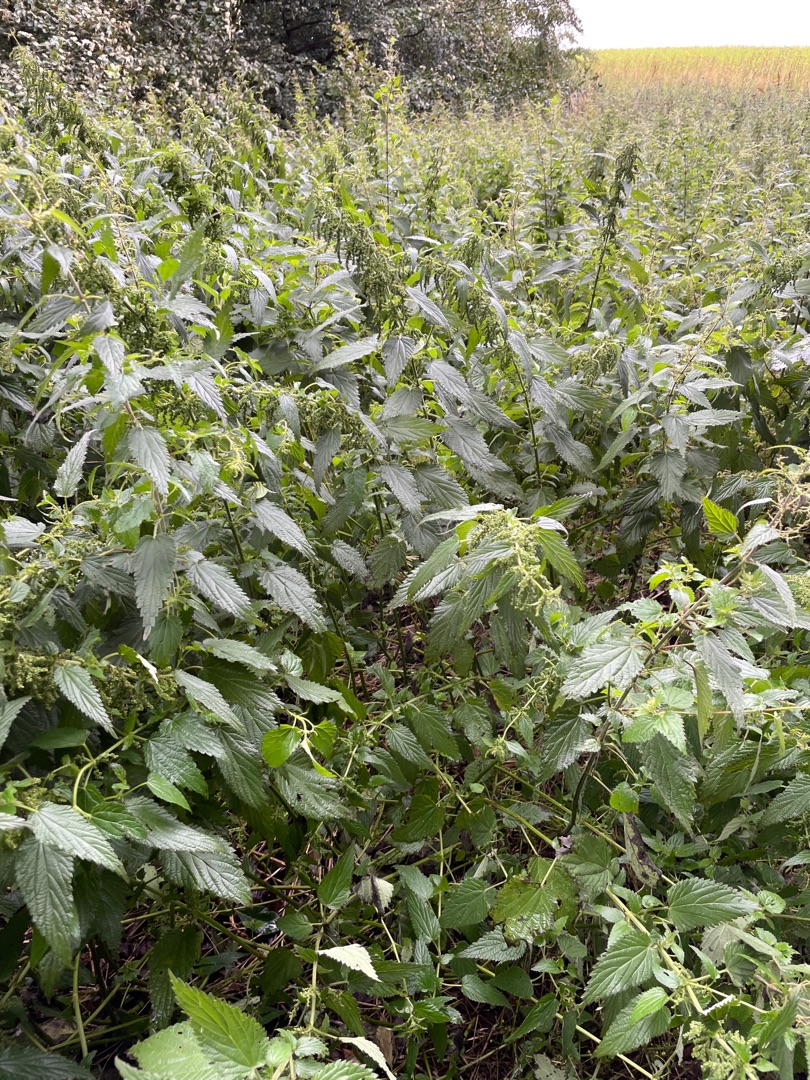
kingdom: Plantae
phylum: Tracheophyta
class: Magnoliopsida
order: Rosales
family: Urticaceae
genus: Urtica
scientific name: Urtica dioica
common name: Stor nælde
